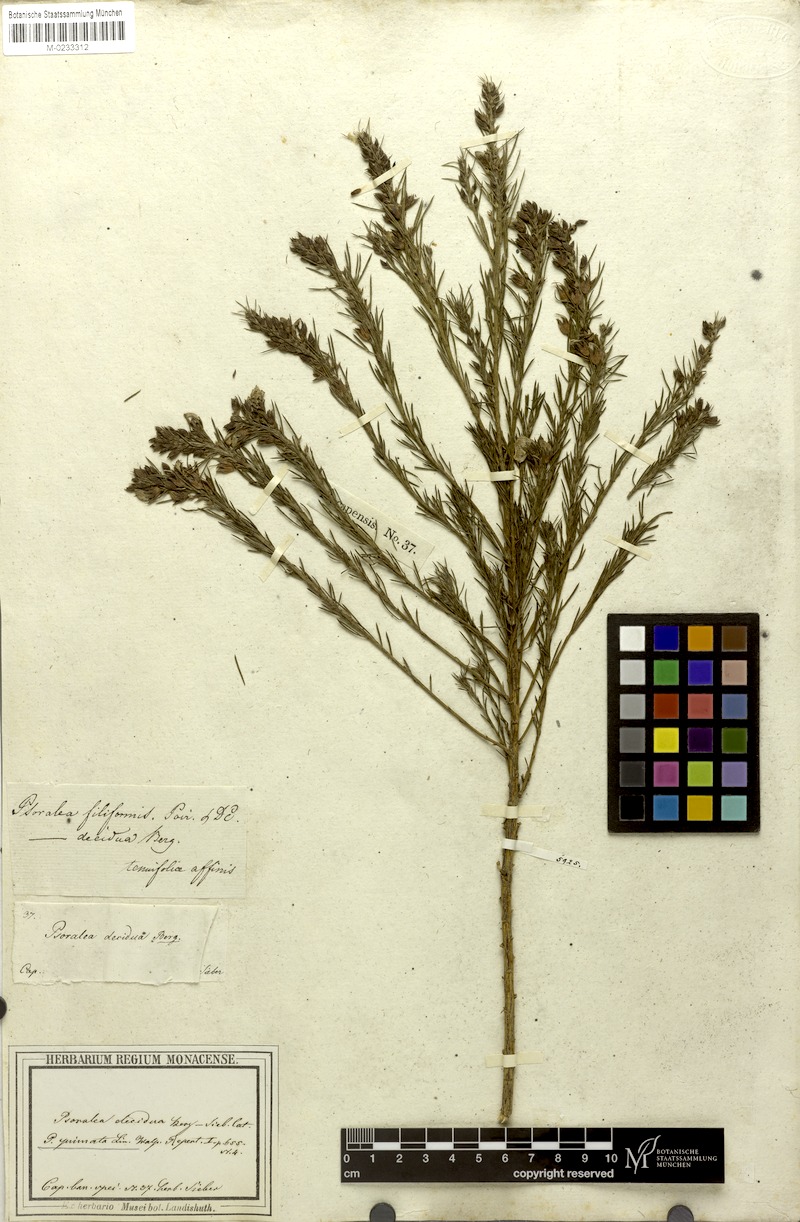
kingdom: Plantae
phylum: Tracheophyta
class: Magnoliopsida
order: Fabales
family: Fabaceae
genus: Psoralea
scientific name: Psoralea pinnata
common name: African scurfpea
